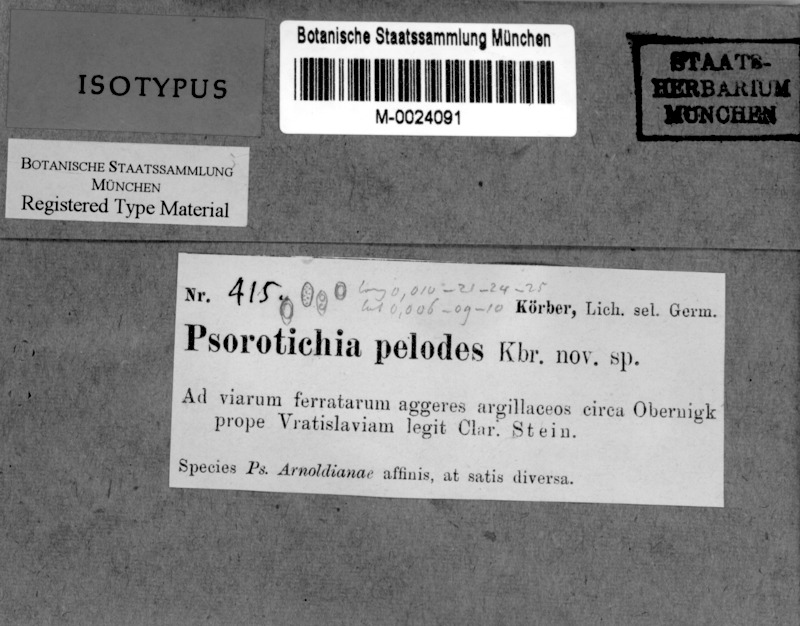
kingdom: Fungi
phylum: Ascomycota
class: Lichinomycetes
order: Lichinales
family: Lichinaceae
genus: Lemmopsis
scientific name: Lemmopsis pelodes
